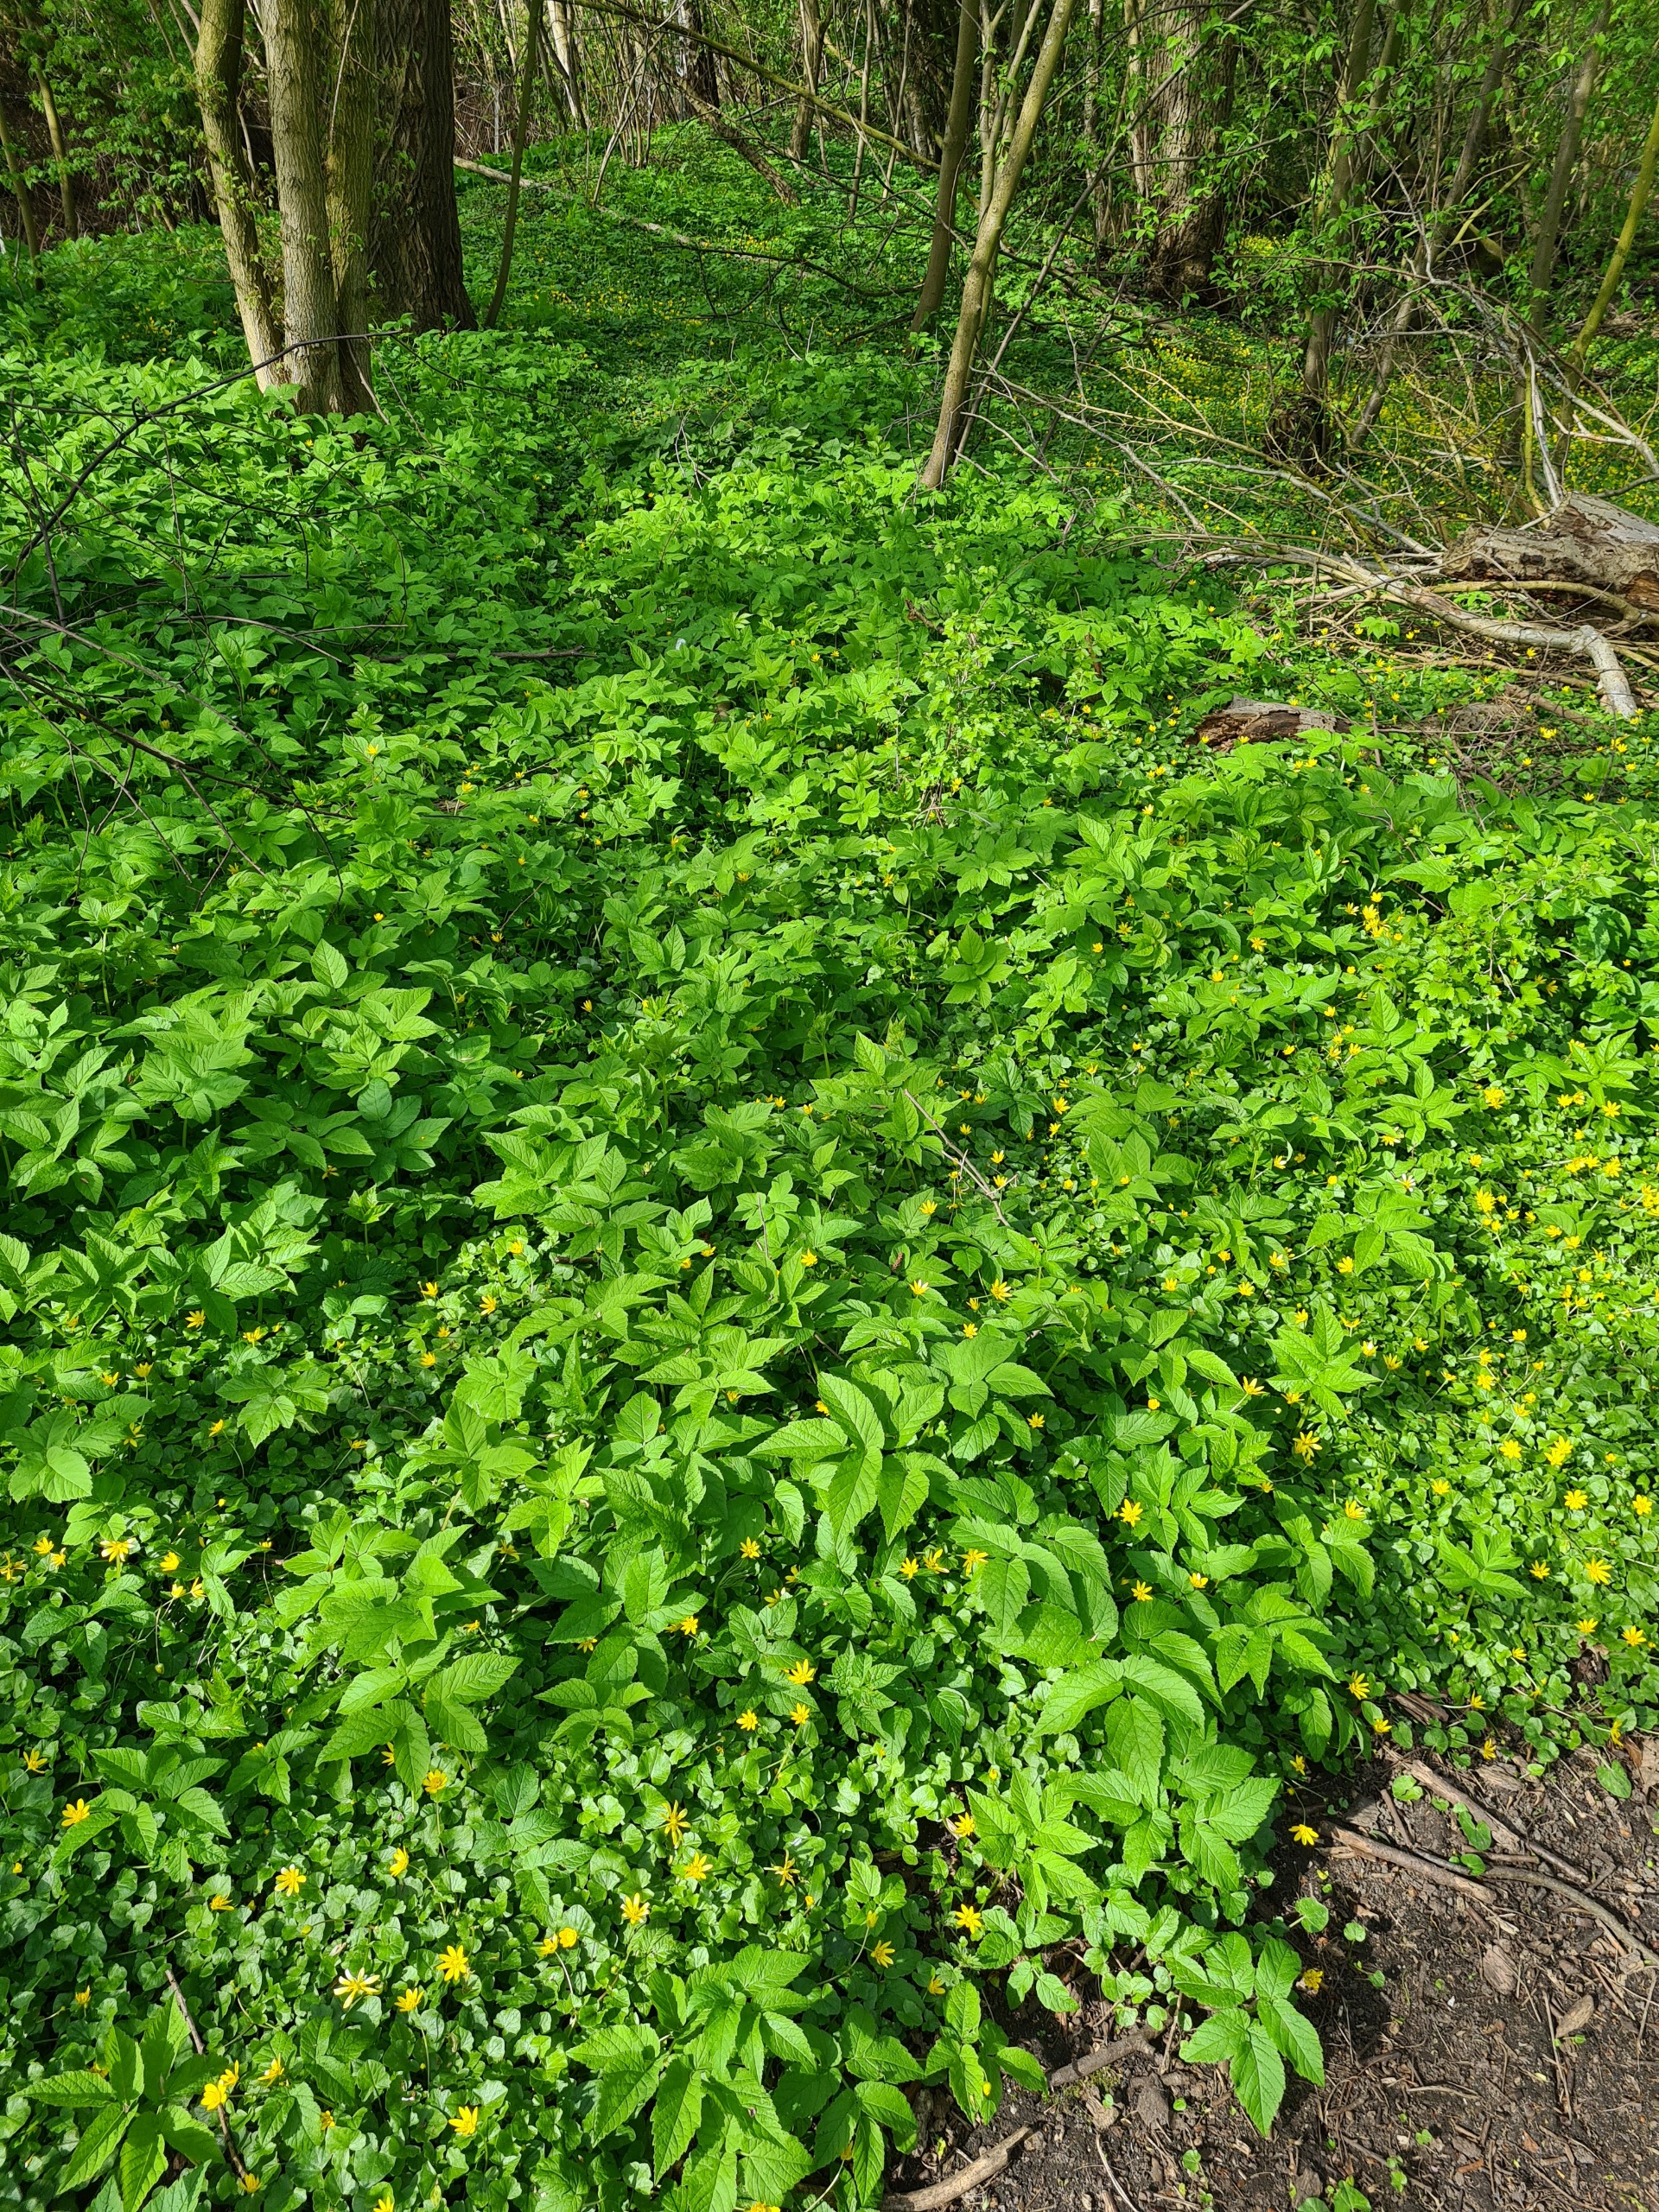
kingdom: Plantae
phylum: Tracheophyta
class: Magnoliopsida
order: Apiales
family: Apiaceae
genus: Aegopodium
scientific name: Aegopodium podagraria
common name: Skvalderkål
